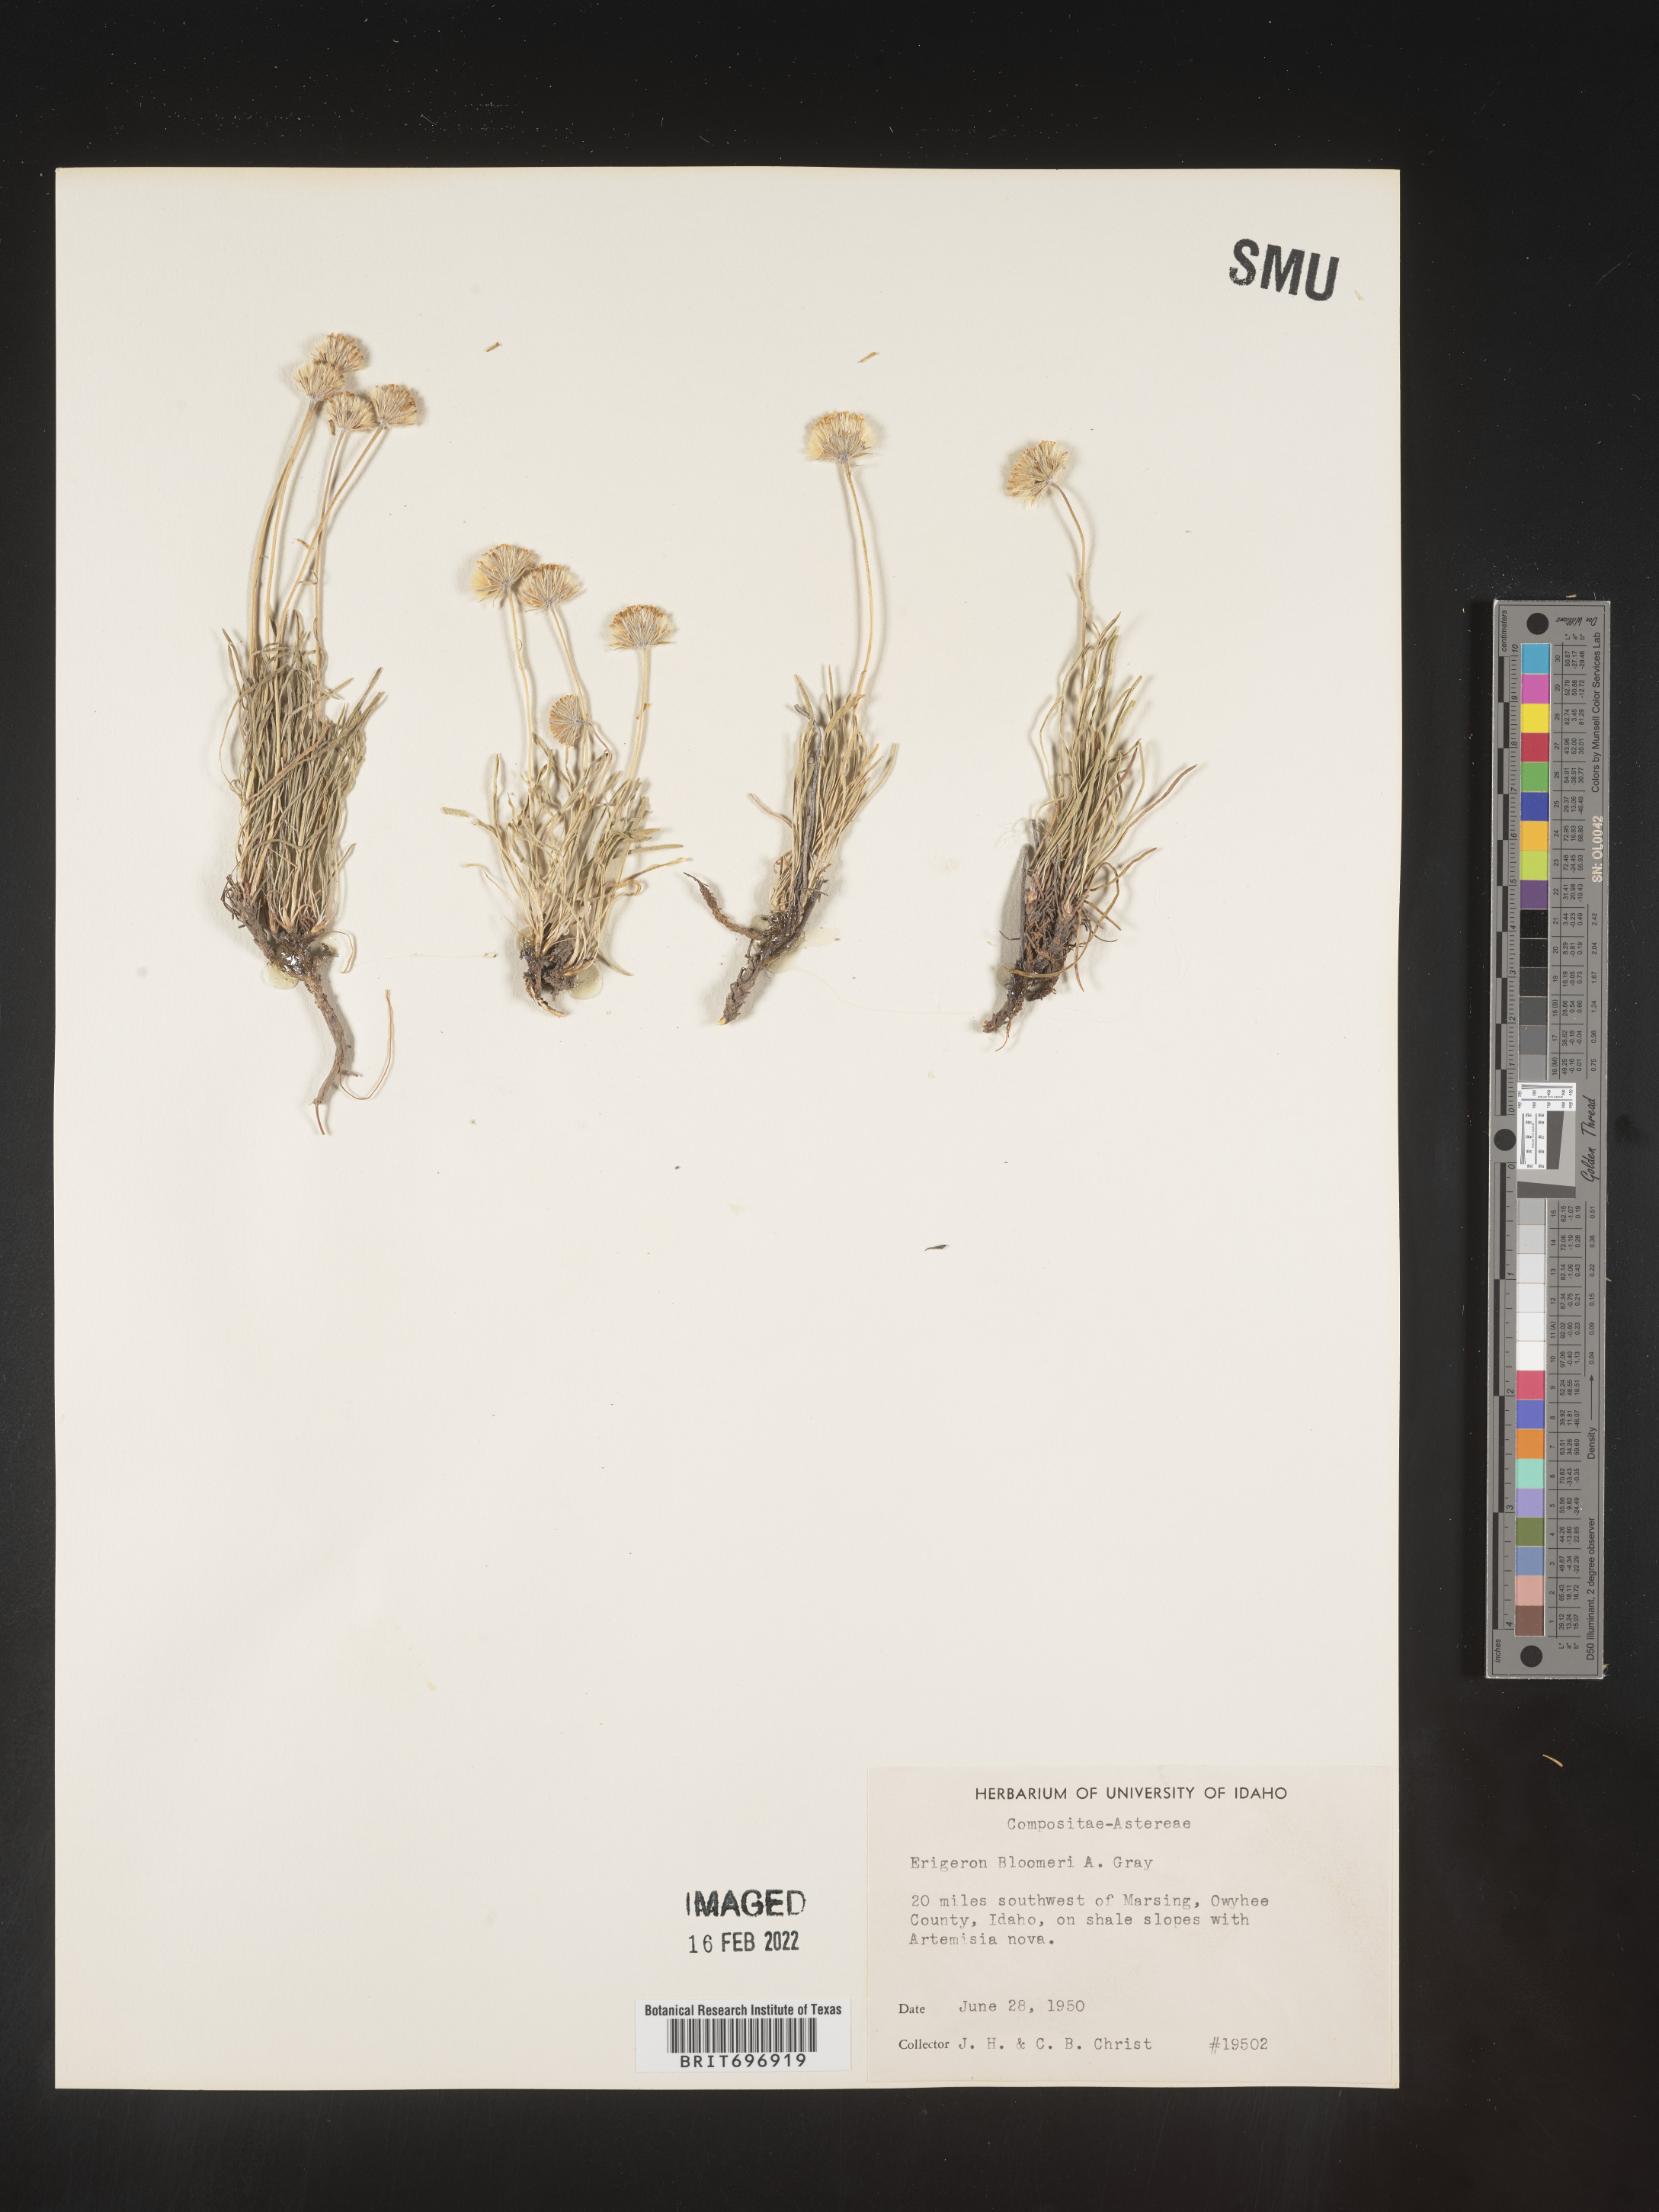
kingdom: Plantae
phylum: Tracheophyta
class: Magnoliopsida
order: Asterales
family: Asteraceae
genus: Erigeron
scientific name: Erigeron bloomeri
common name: Bloomer's fleabane
